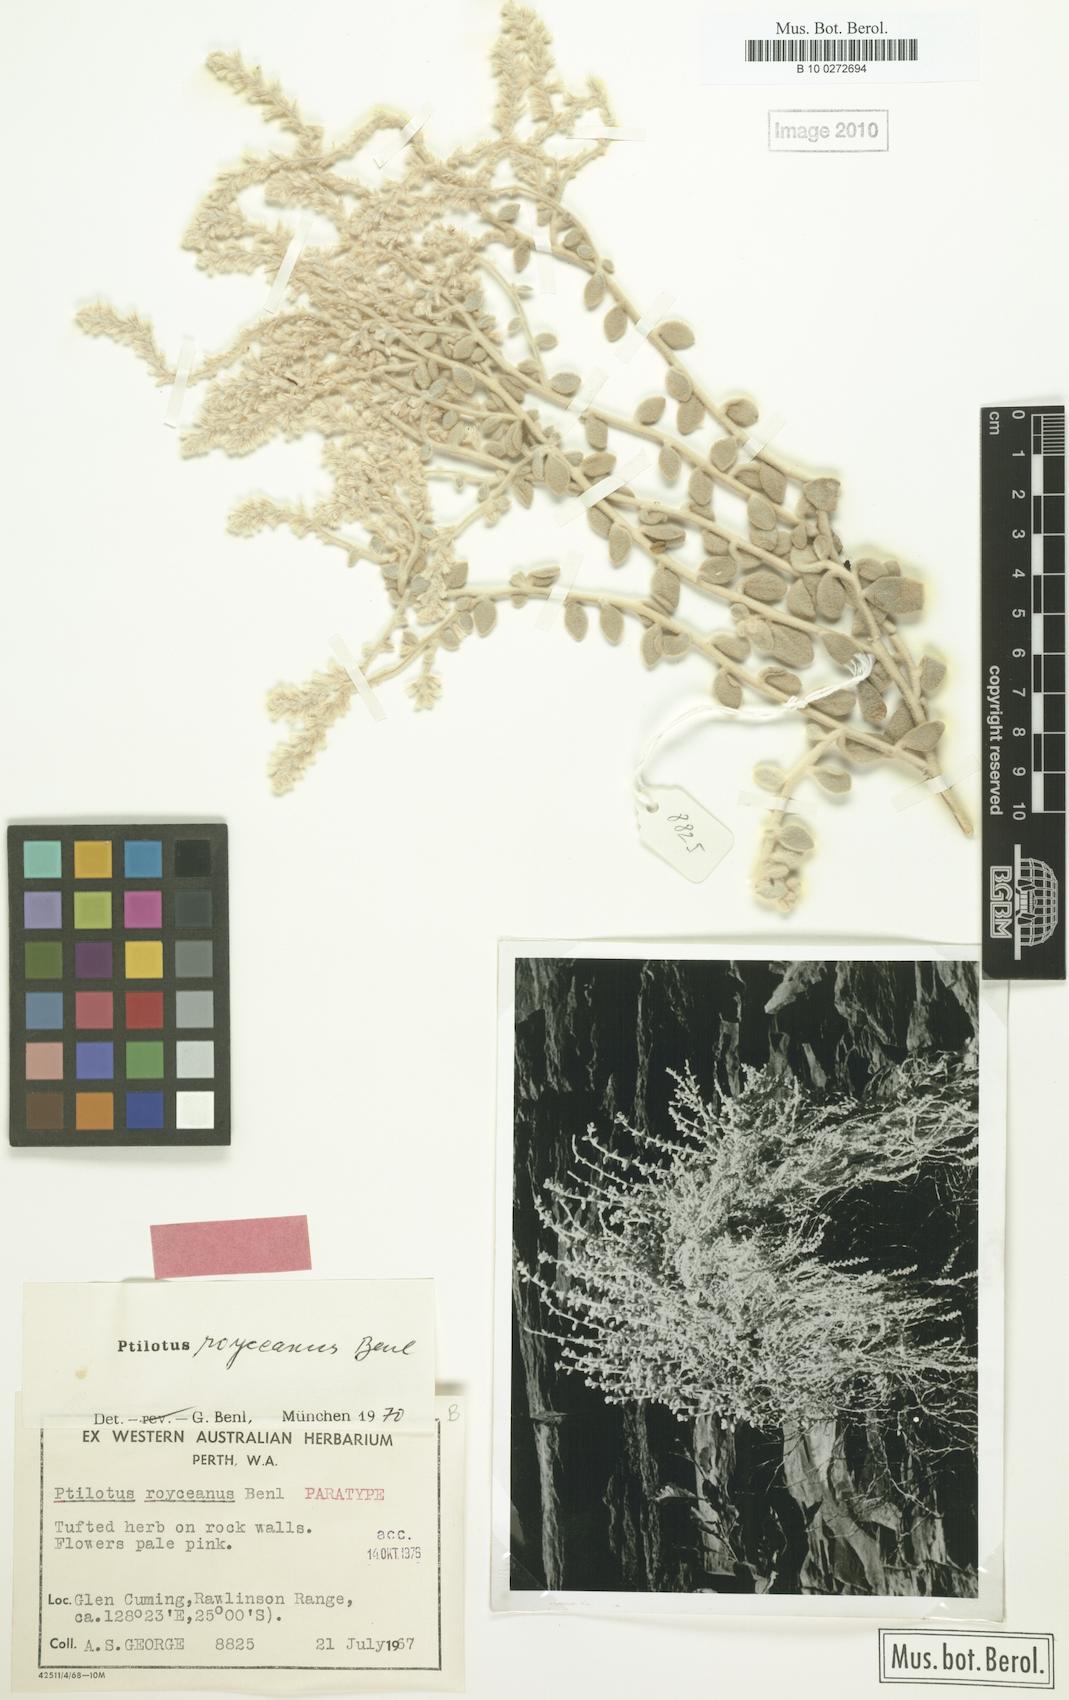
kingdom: Plantae
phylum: Tracheophyta
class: Magnoliopsida
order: Caryophyllales
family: Amaranthaceae
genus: Ptilotus
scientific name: Ptilotus royceanus
